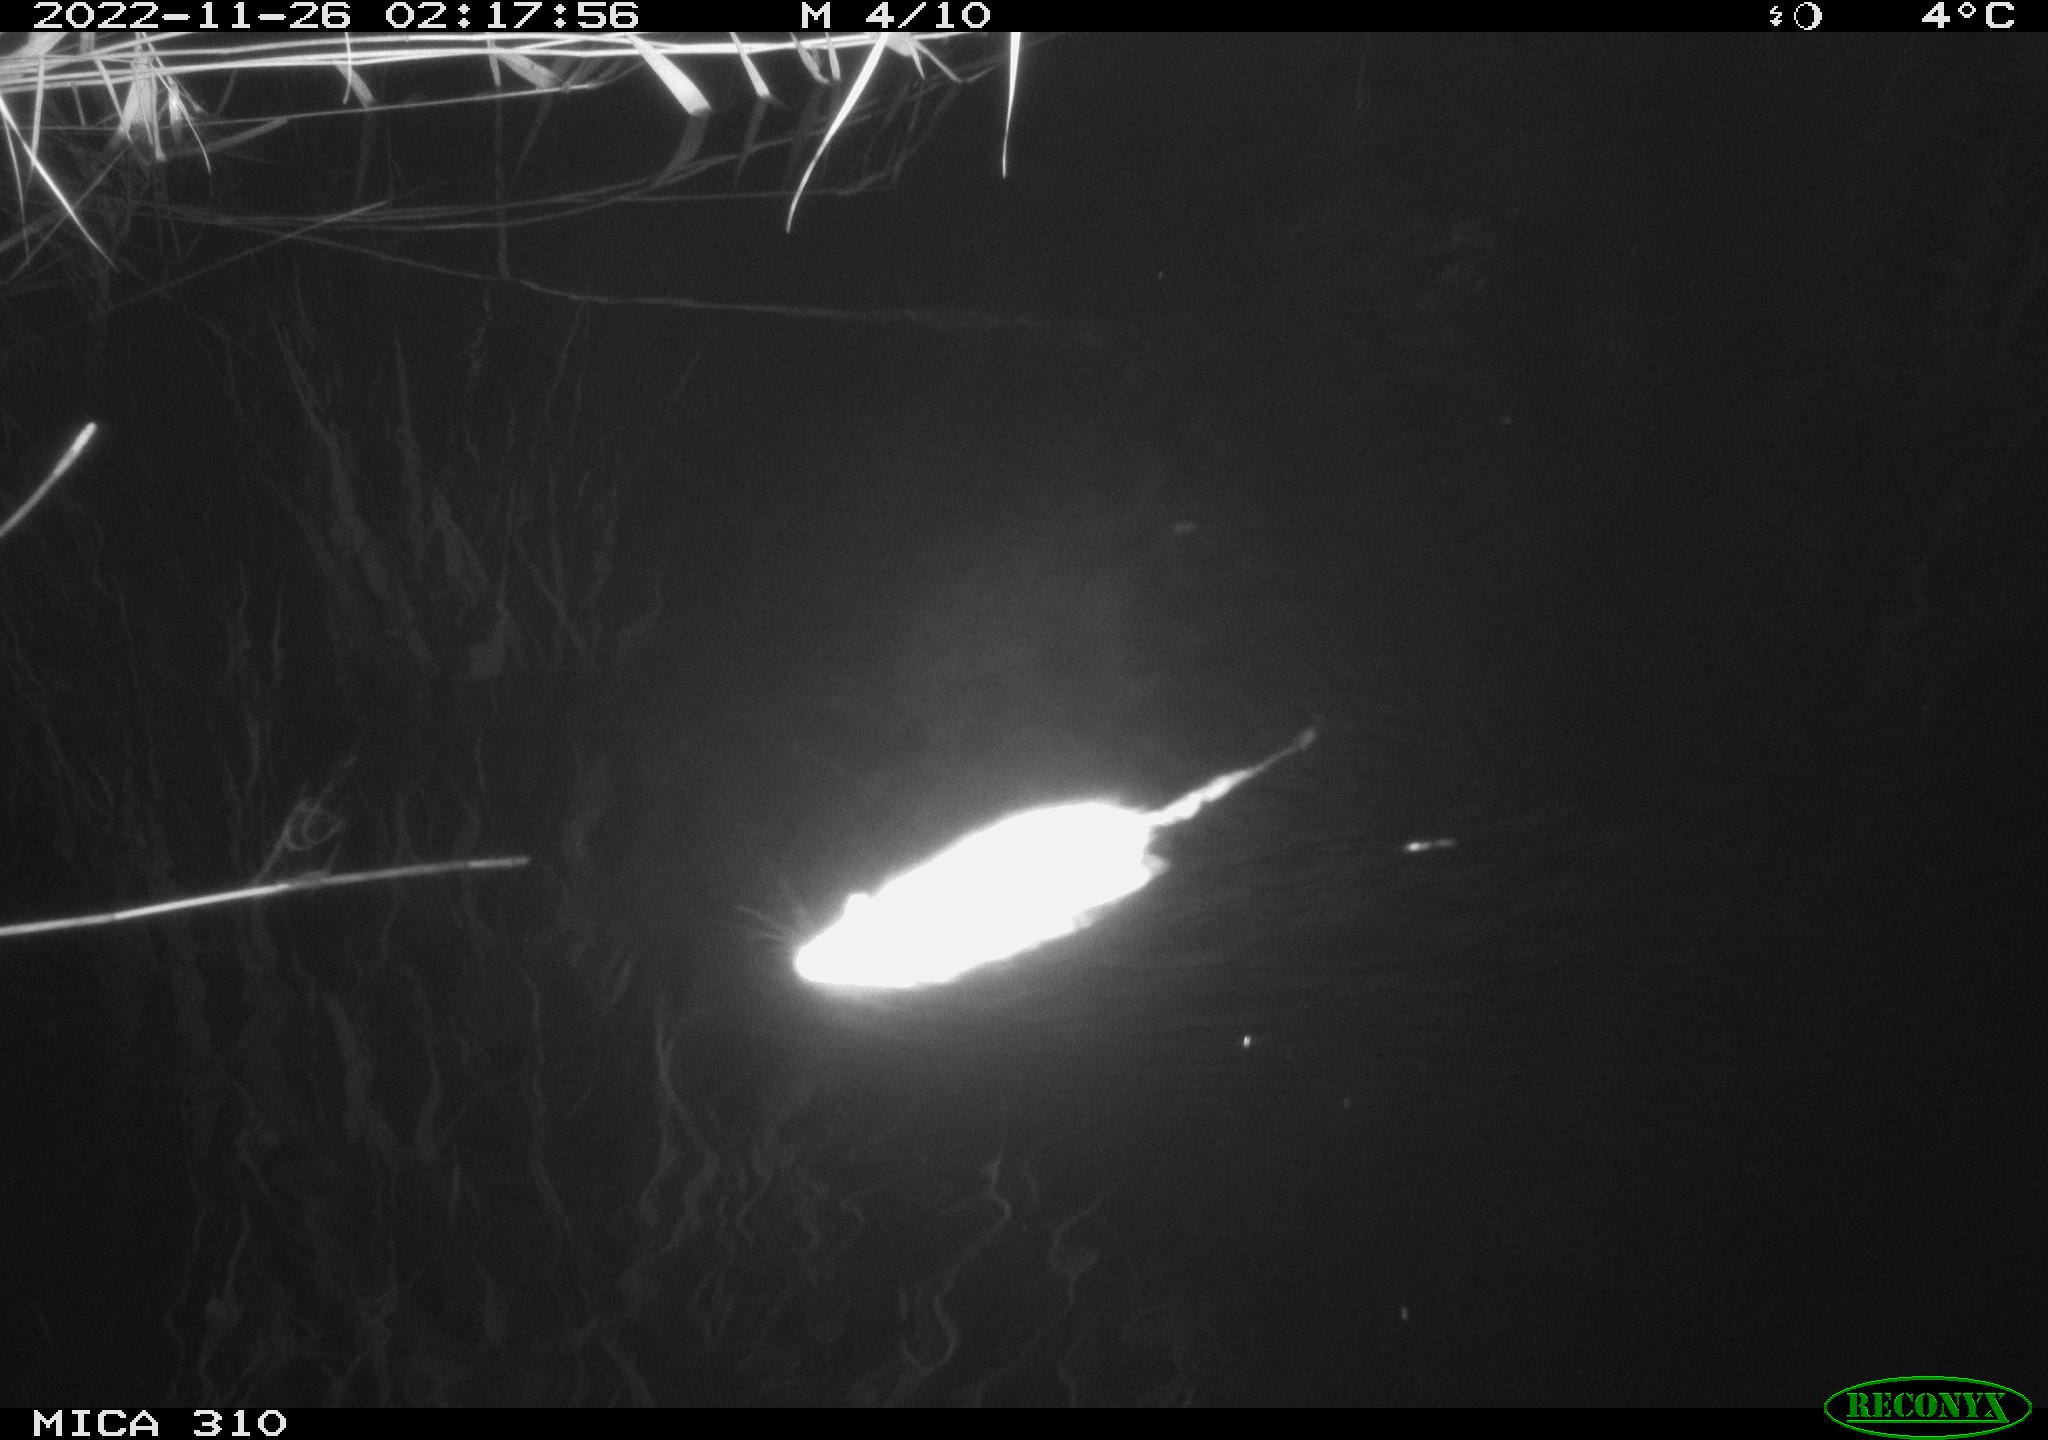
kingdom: Animalia
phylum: Chordata
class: Mammalia
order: Rodentia
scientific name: Rodentia
